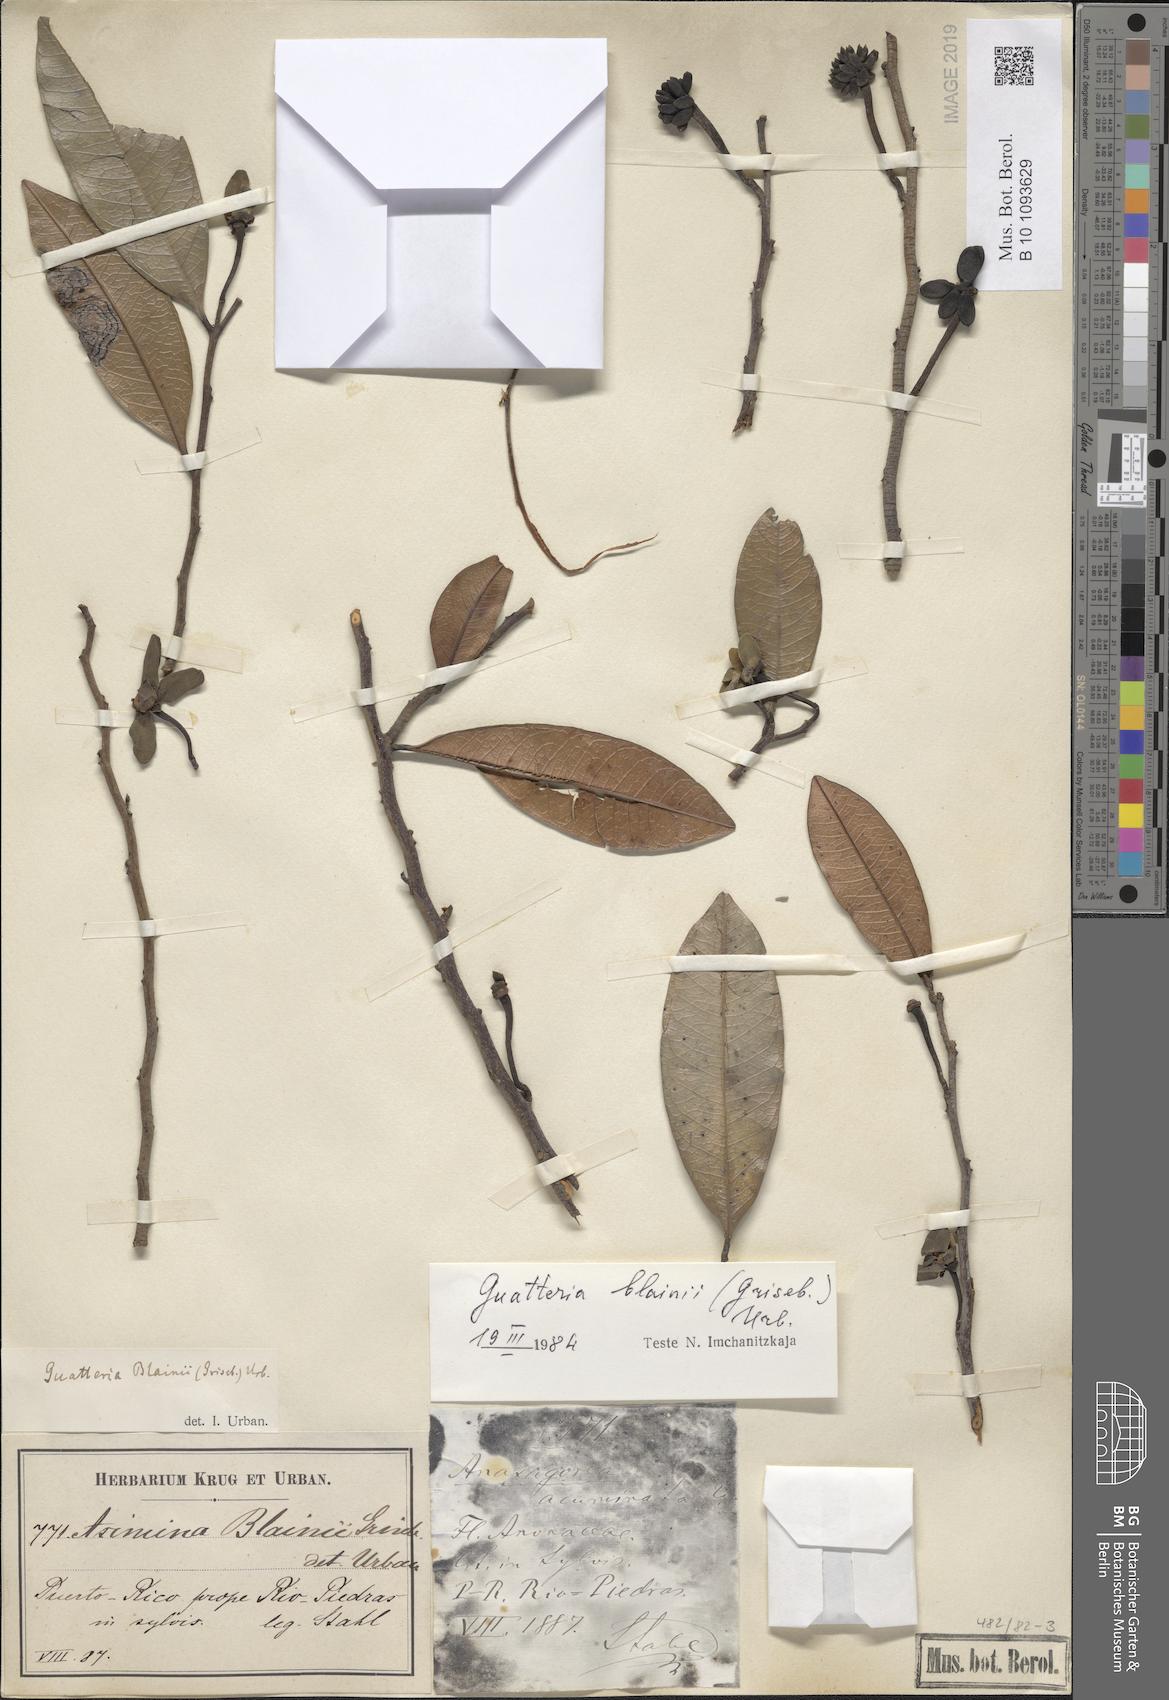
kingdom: Plantae
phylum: Tracheophyta
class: Magnoliopsida
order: Magnoliales
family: Annonaceae
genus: Guatteria
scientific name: Guatteria blainii
